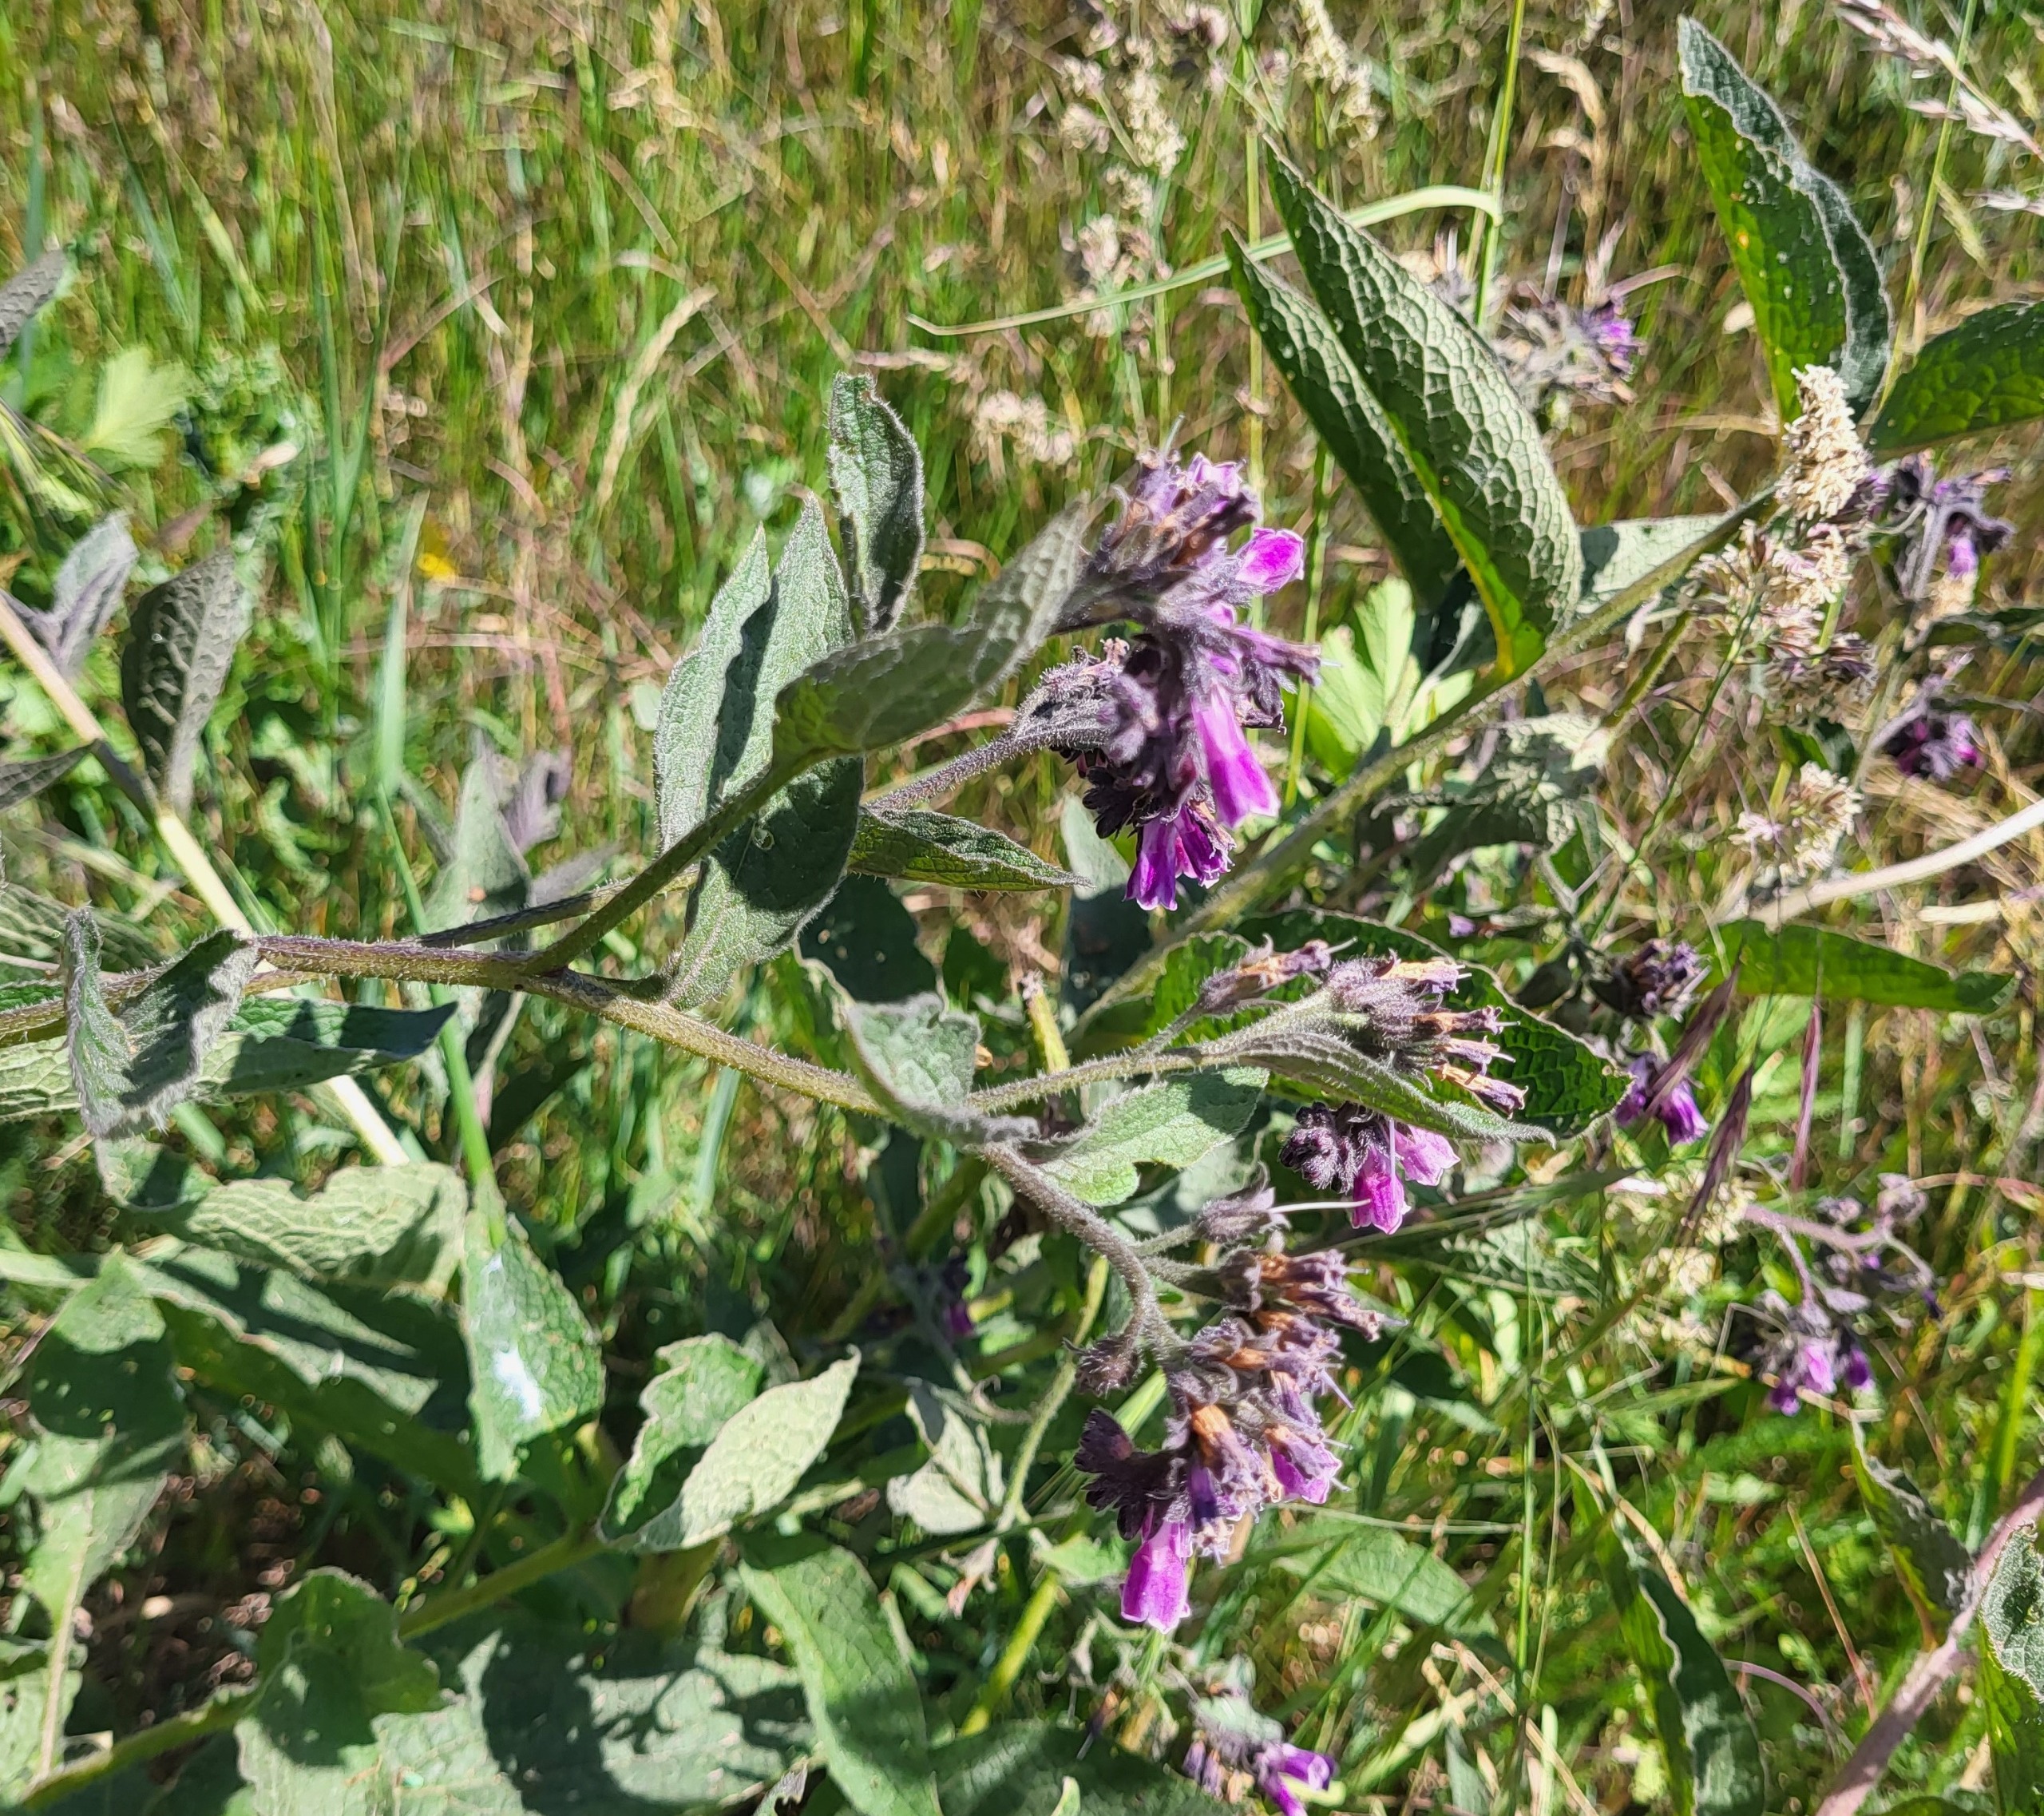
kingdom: Plantae
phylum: Tracheophyta
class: Magnoliopsida
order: Boraginales
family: Boraginaceae
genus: Symphytum
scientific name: Symphytum uplandicum
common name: Foder-kulsukker
